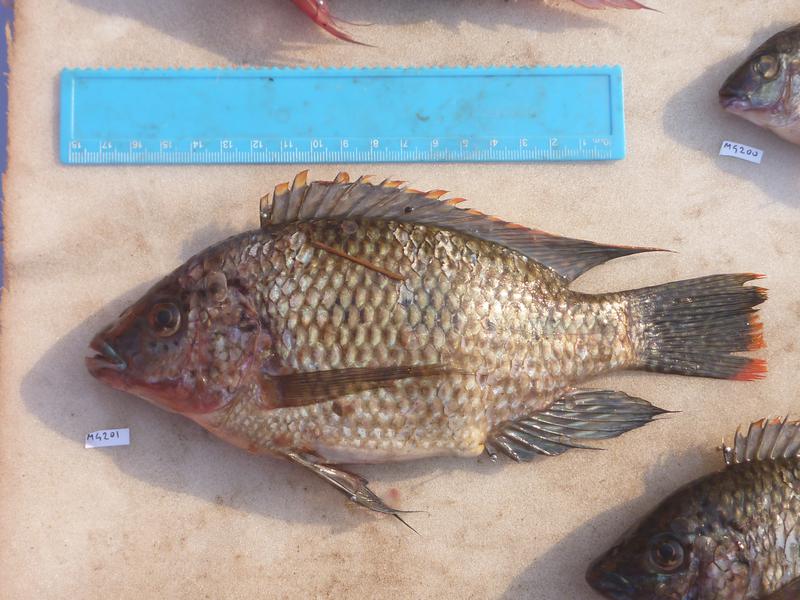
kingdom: Animalia
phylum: Chordata
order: Perciformes
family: Cichlidae
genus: Oreochromis
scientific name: Oreochromis karomo
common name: Karomo
